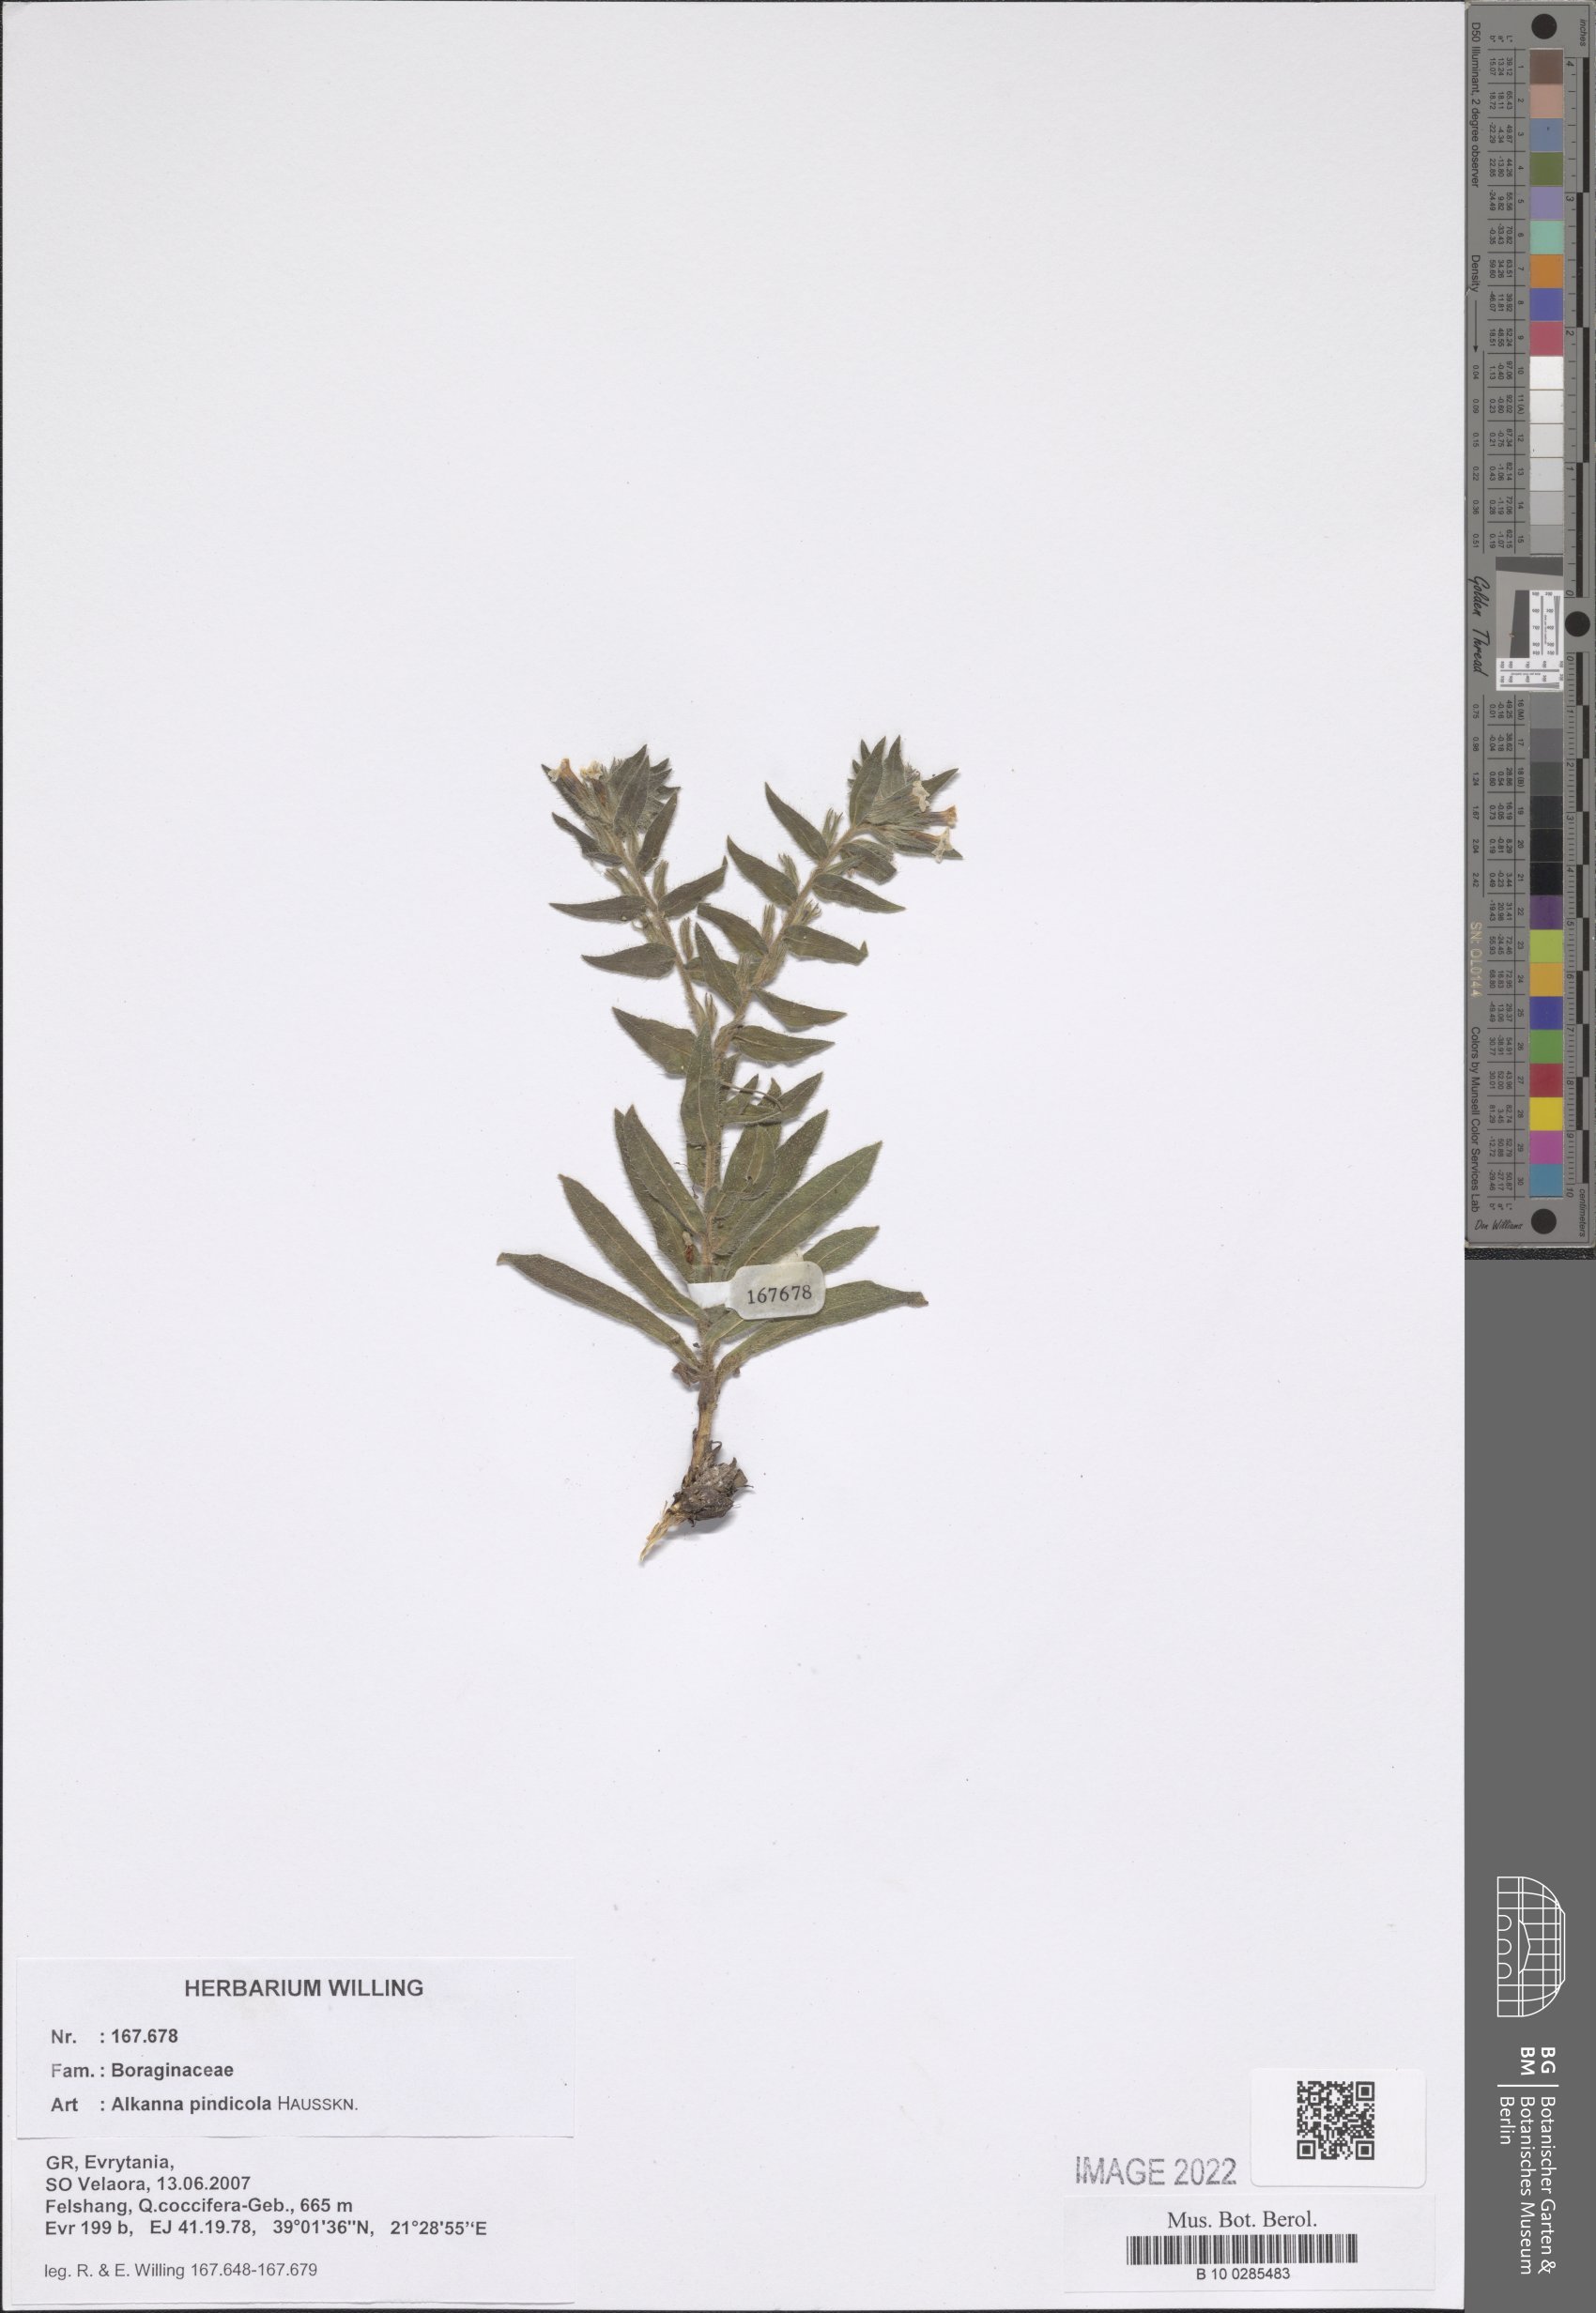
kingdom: Plantae
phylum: Tracheophyta
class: Magnoliopsida
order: Boraginales
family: Boraginaceae
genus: Alkanna
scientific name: Alkanna pindicola
